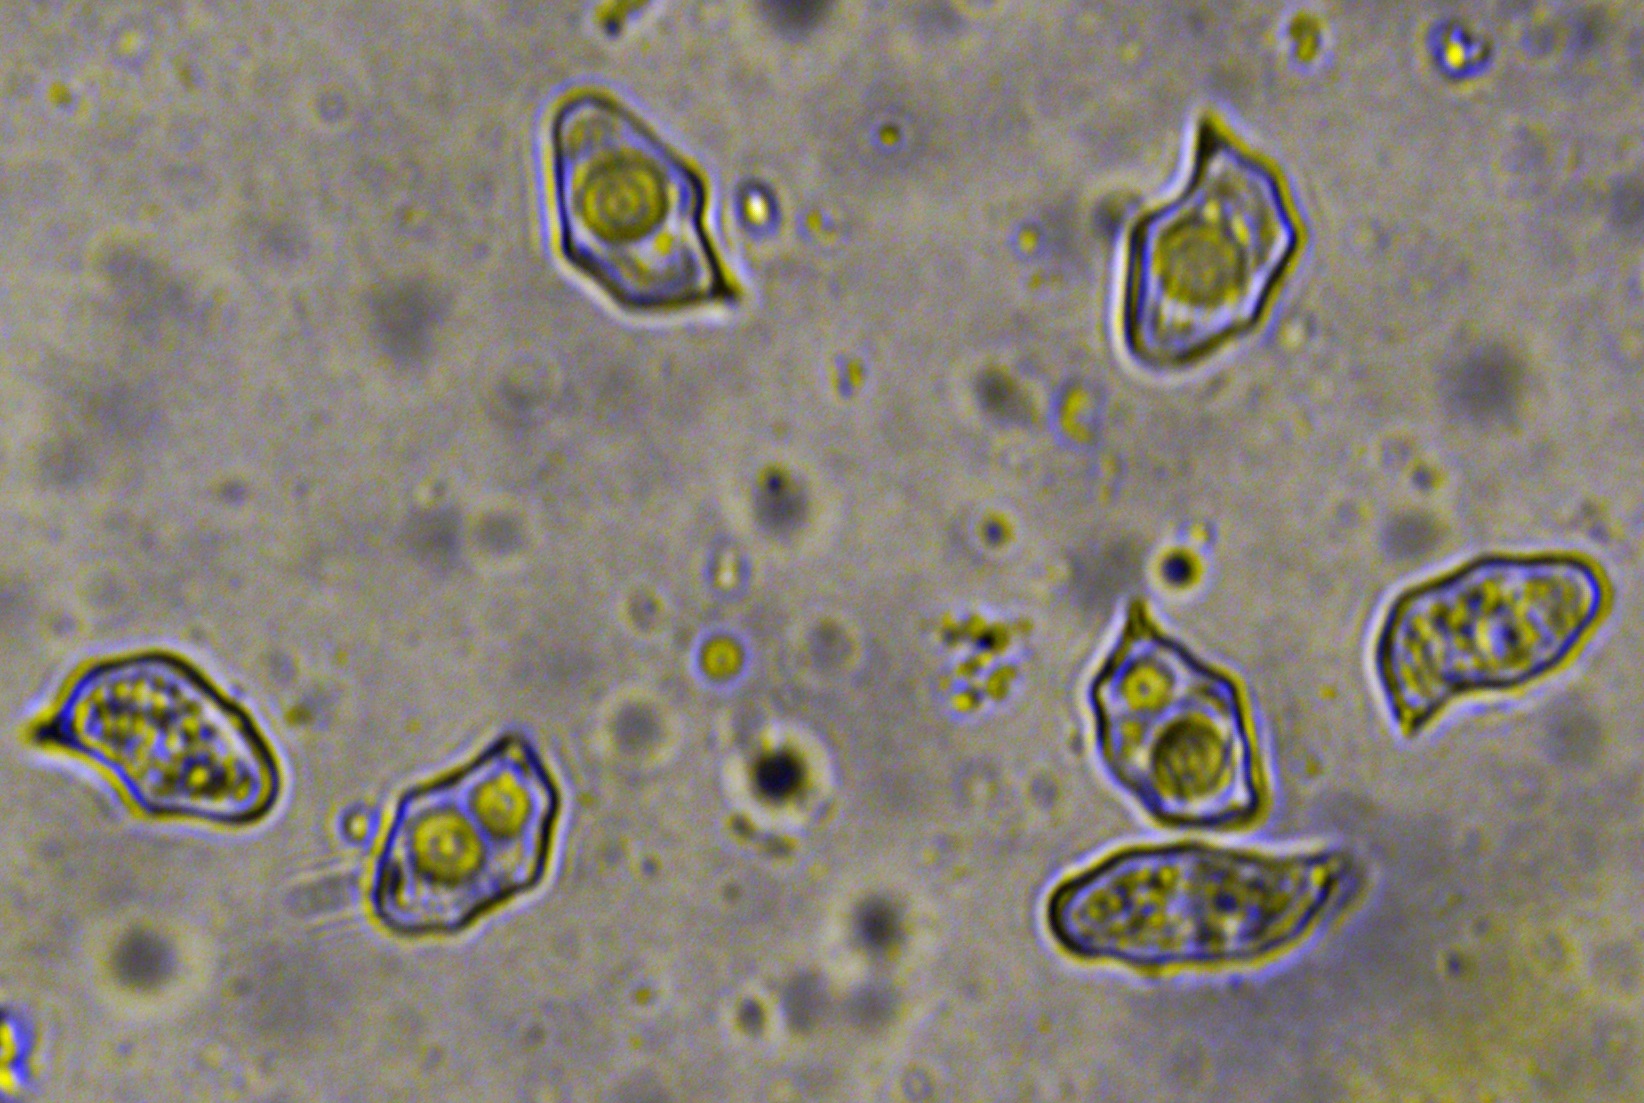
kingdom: Fungi
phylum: Basidiomycota
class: Agaricomycetes
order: Agaricales
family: Entolomataceae
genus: Entoloma
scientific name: Entoloma
